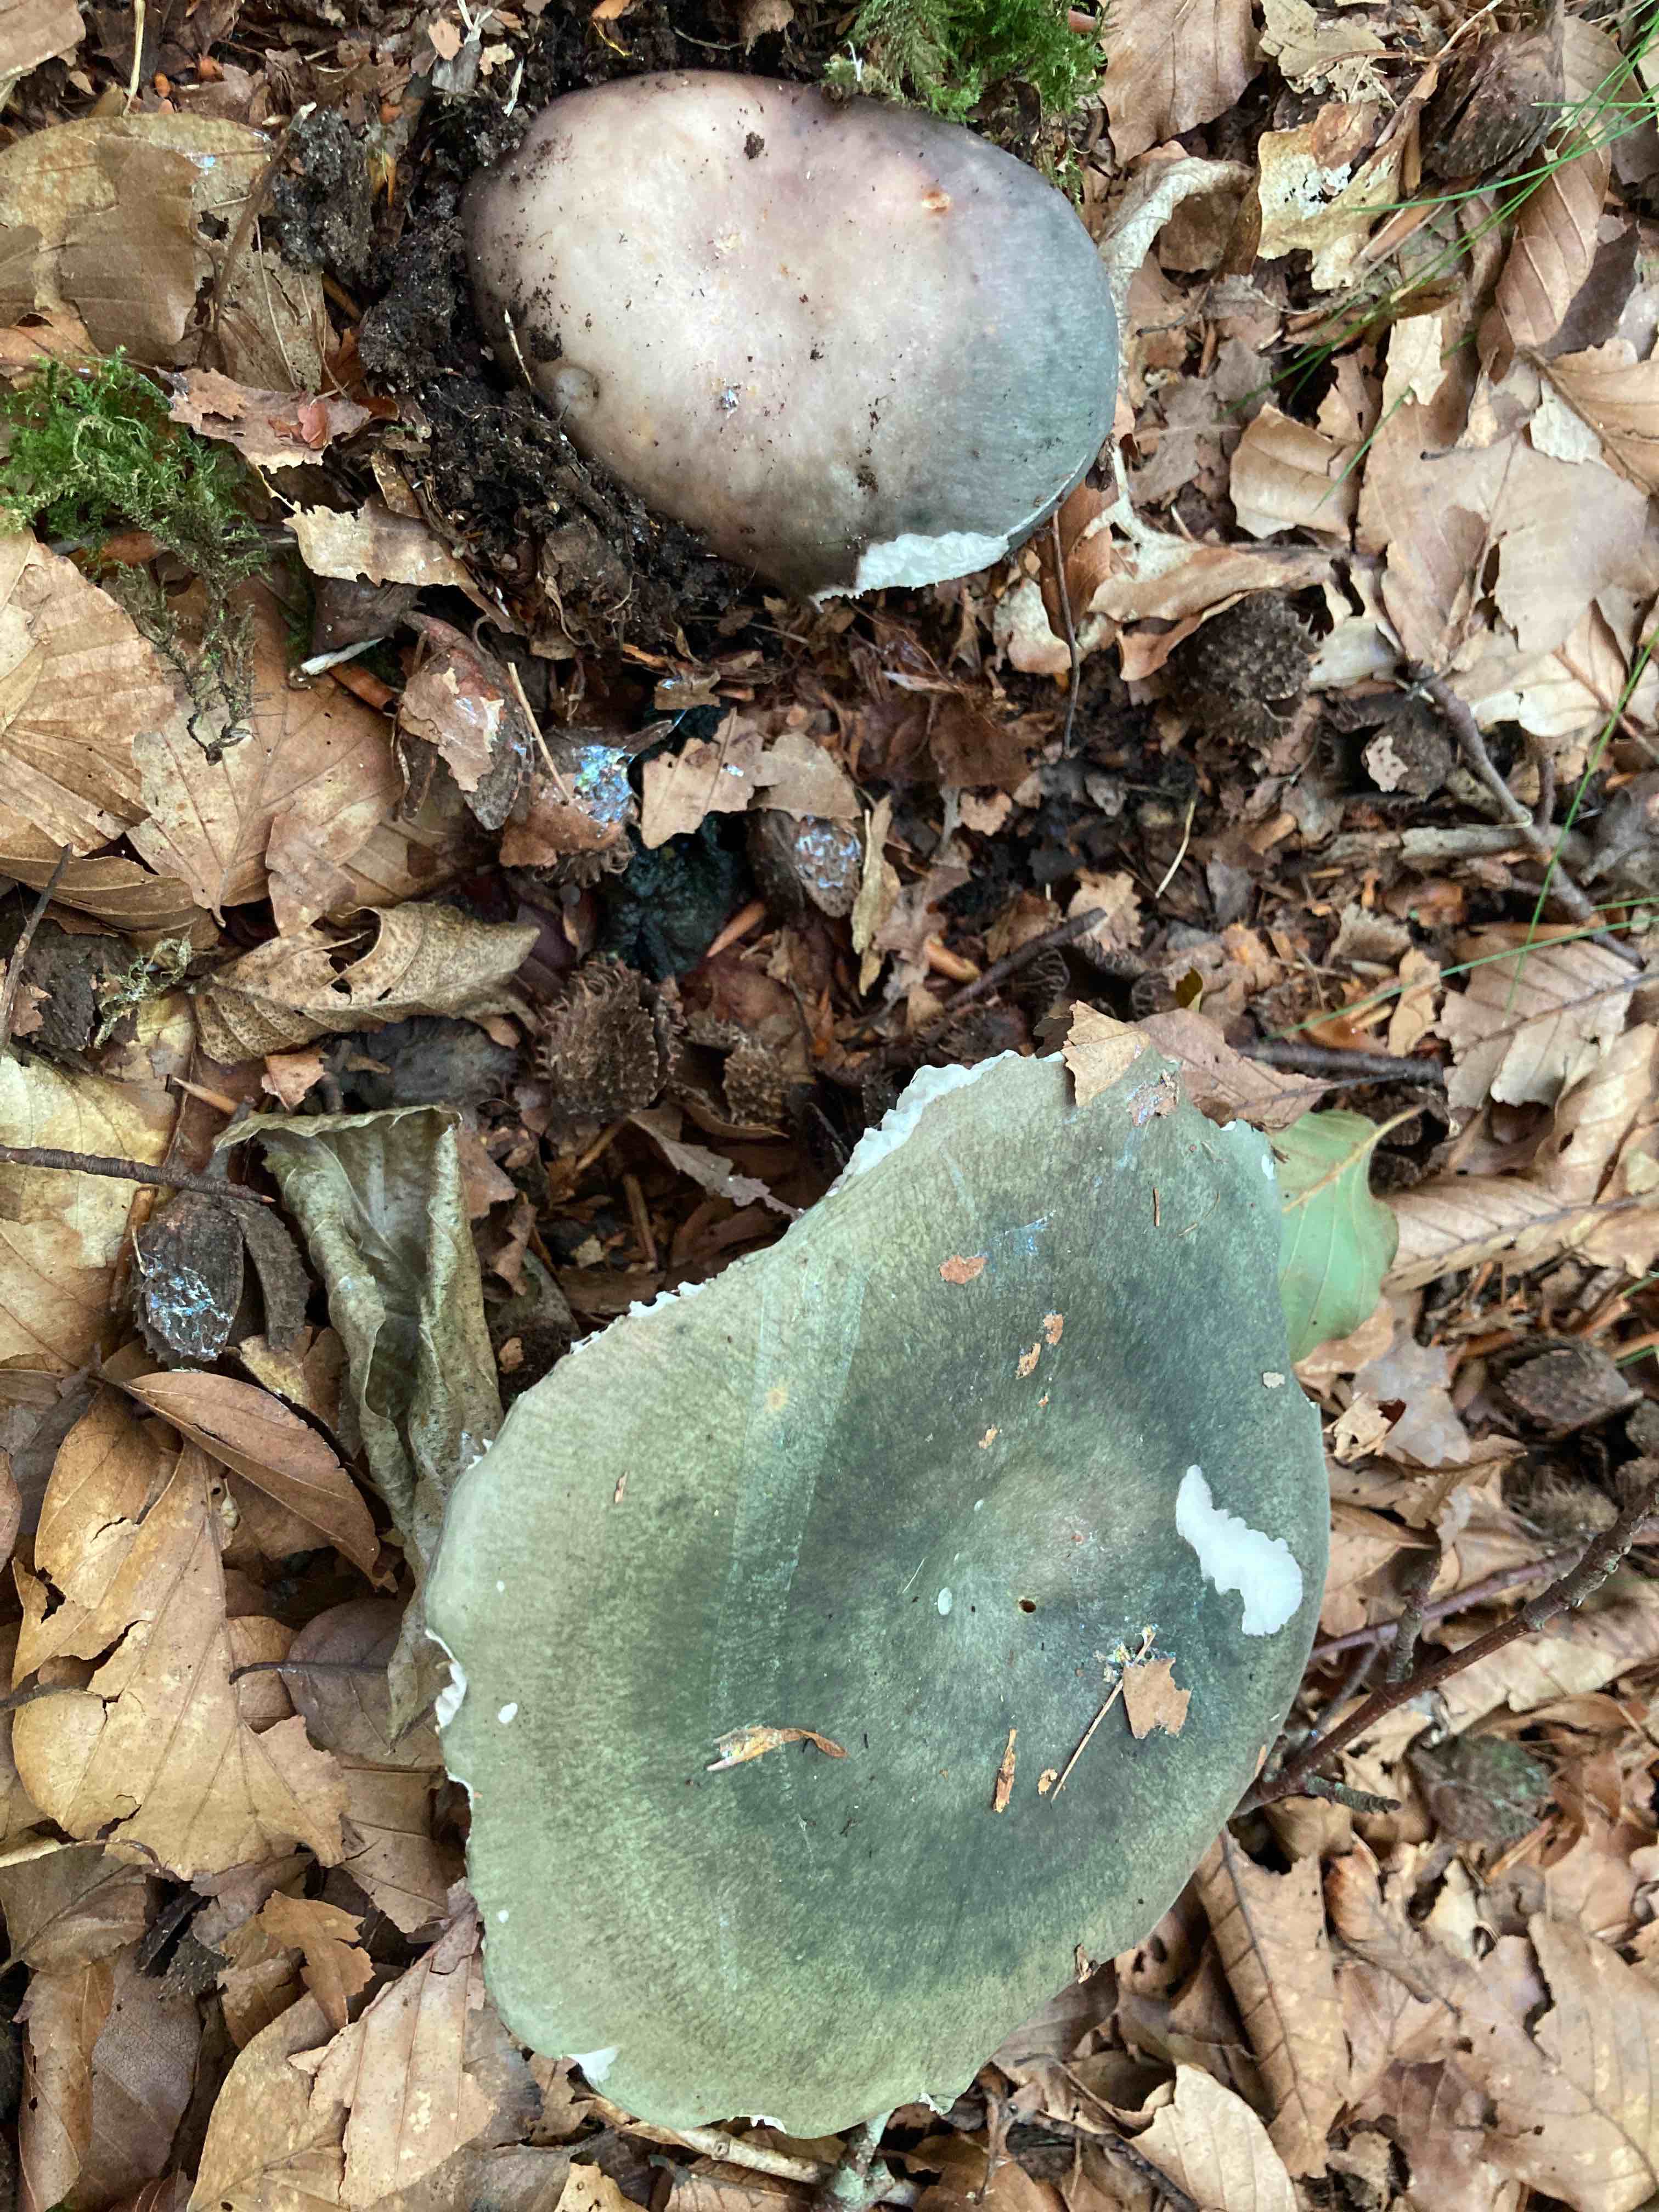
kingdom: Fungi
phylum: Basidiomycota
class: Agaricomycetes
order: Russulales
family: Russulaceae
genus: Russula
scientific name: Russula cyanoxantha
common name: broget skørhat
